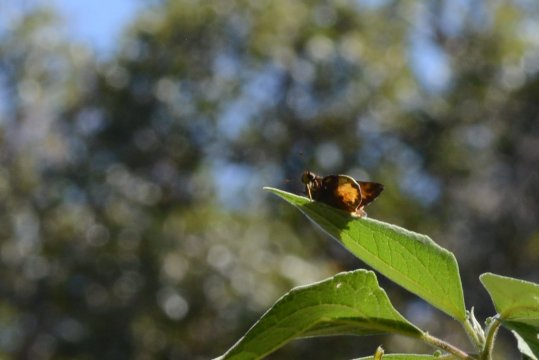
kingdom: Animalia
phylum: Arthropoda
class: Insecta
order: Lepidoptera
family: Hesperiidae
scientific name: Hesperiidae
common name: Skippers
